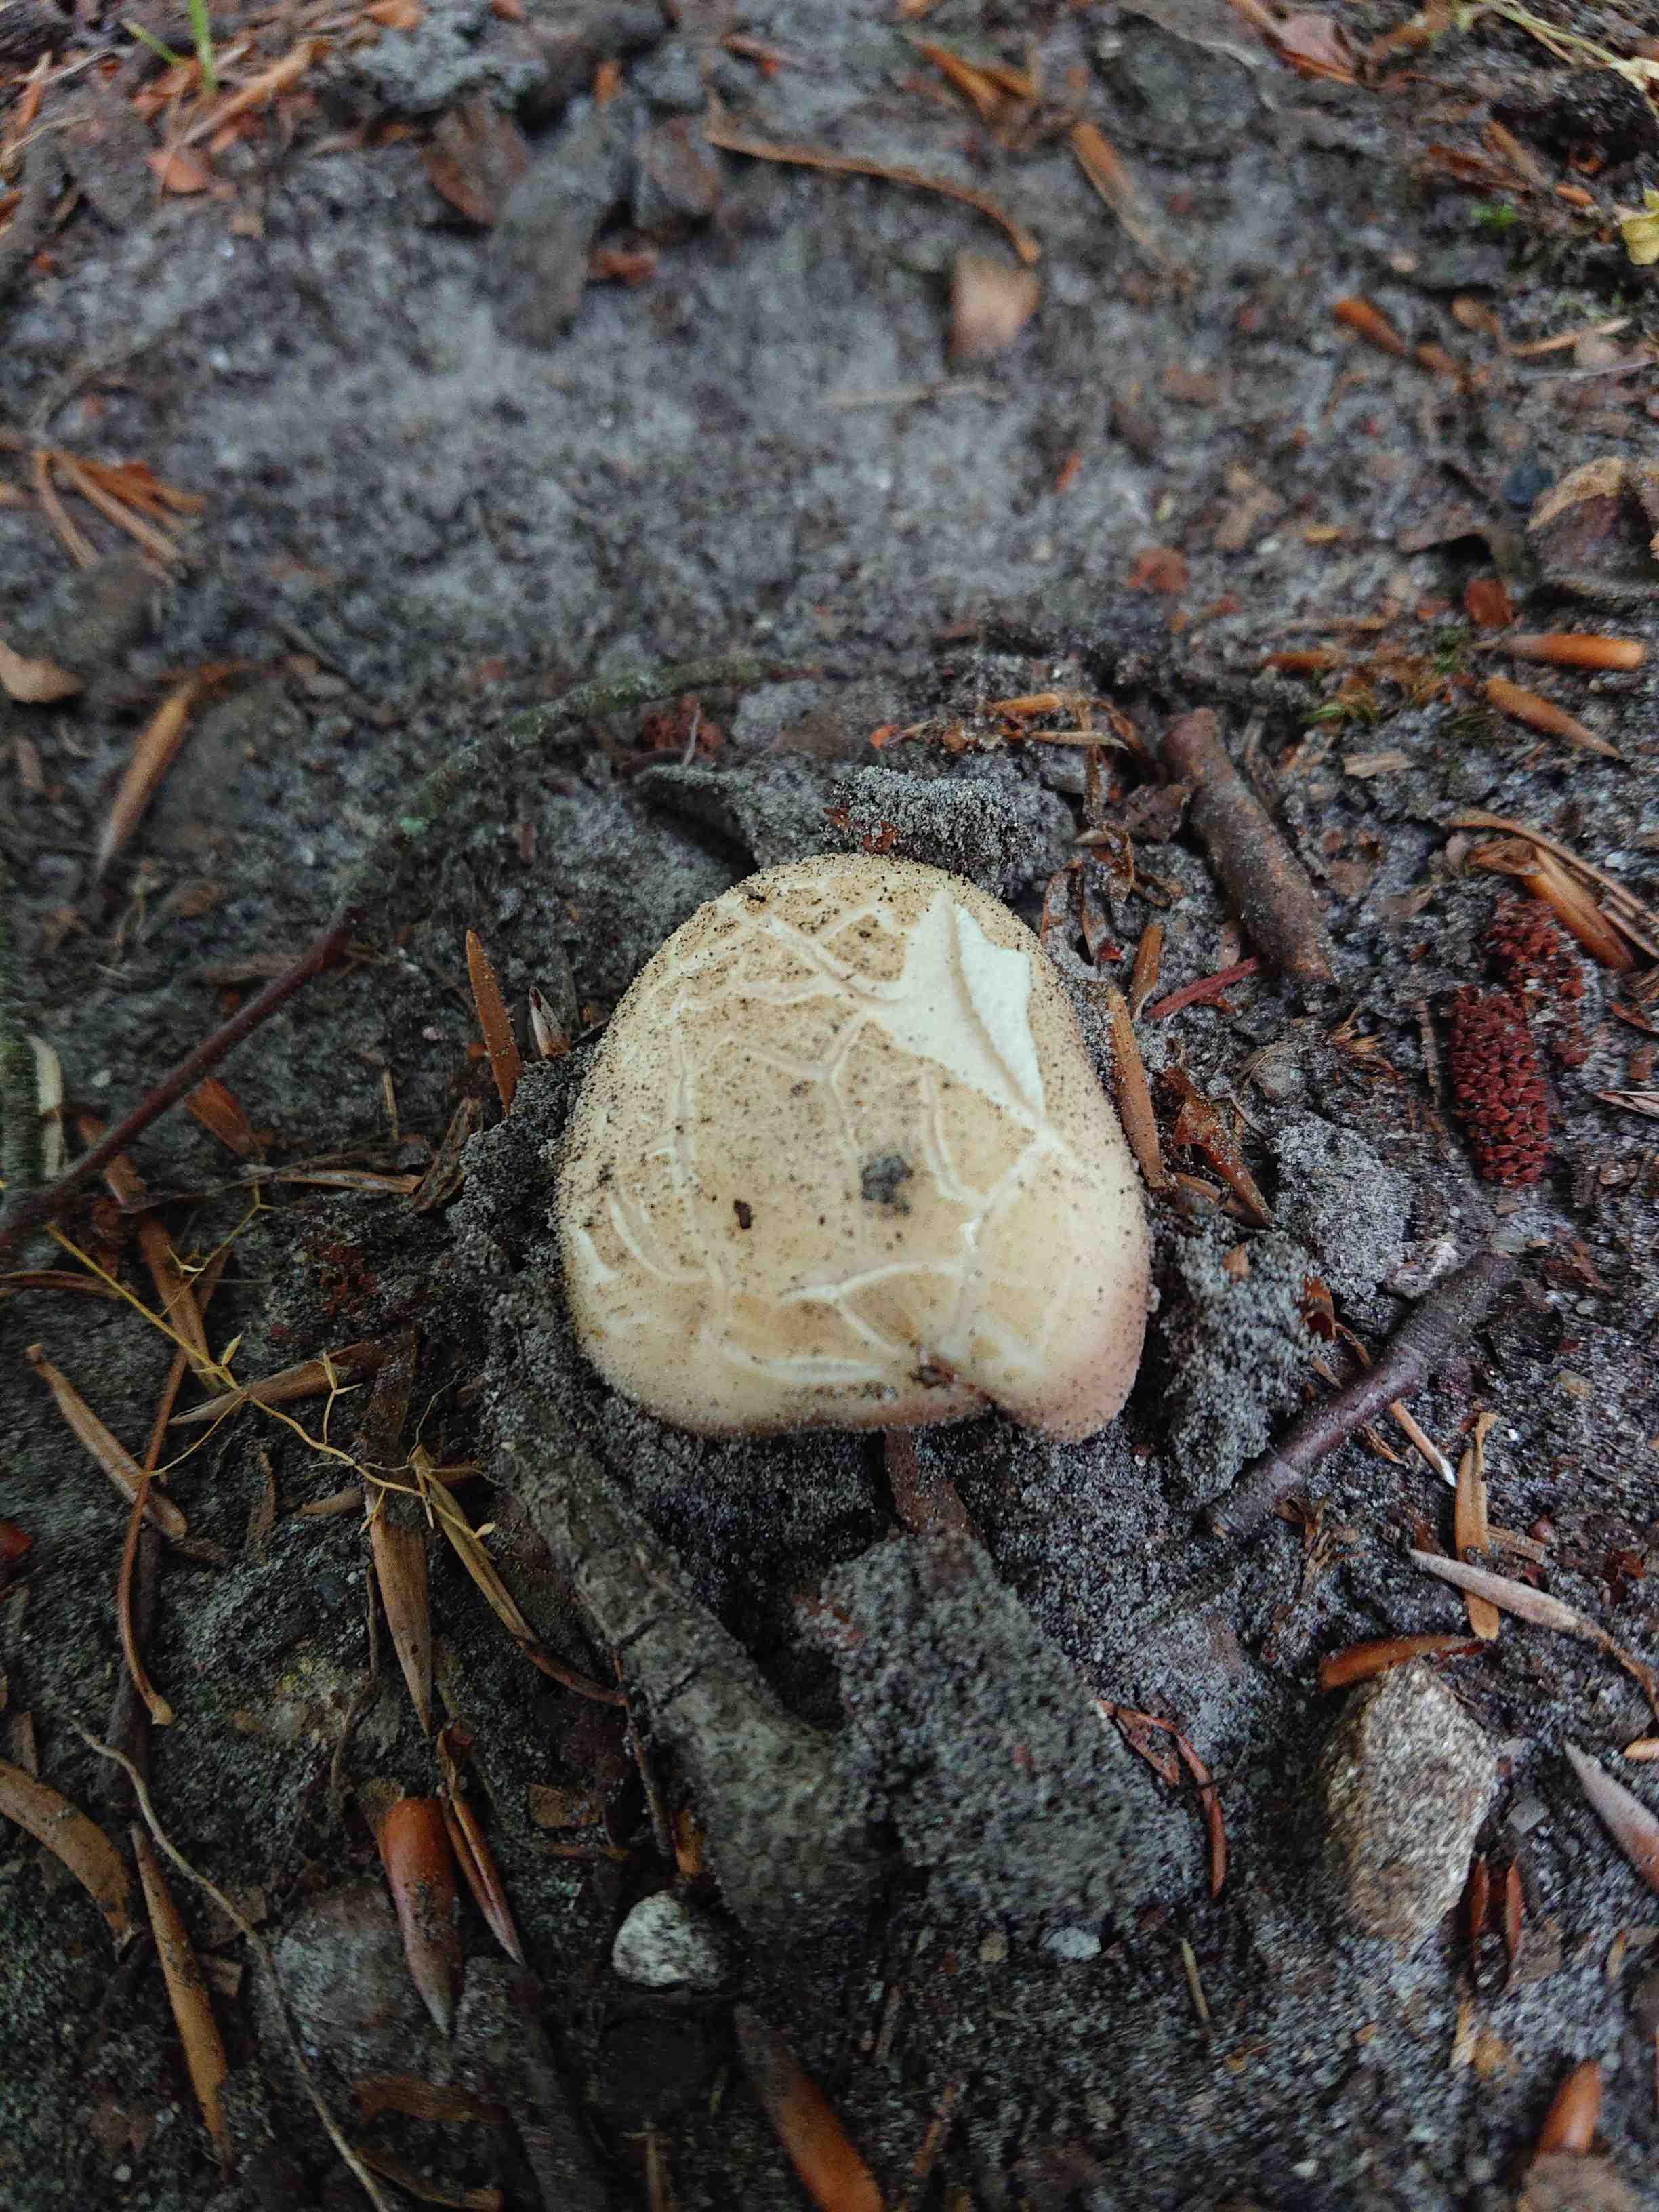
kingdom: Fungi
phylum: Basidiomycota
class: Agaricomycetes
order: Russulales
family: Russulaceae
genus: Russula
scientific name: Russula
